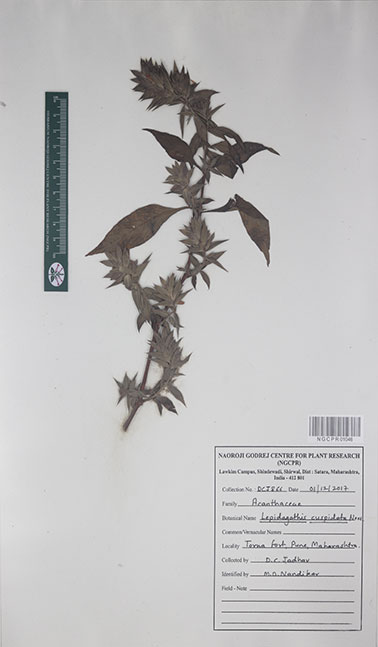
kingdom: Plantae
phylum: Tracheophyta
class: Magnoliopsida
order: Lamiales
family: Acanthaceae
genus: Lepidagathis
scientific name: Lepidagathis cuspidata
